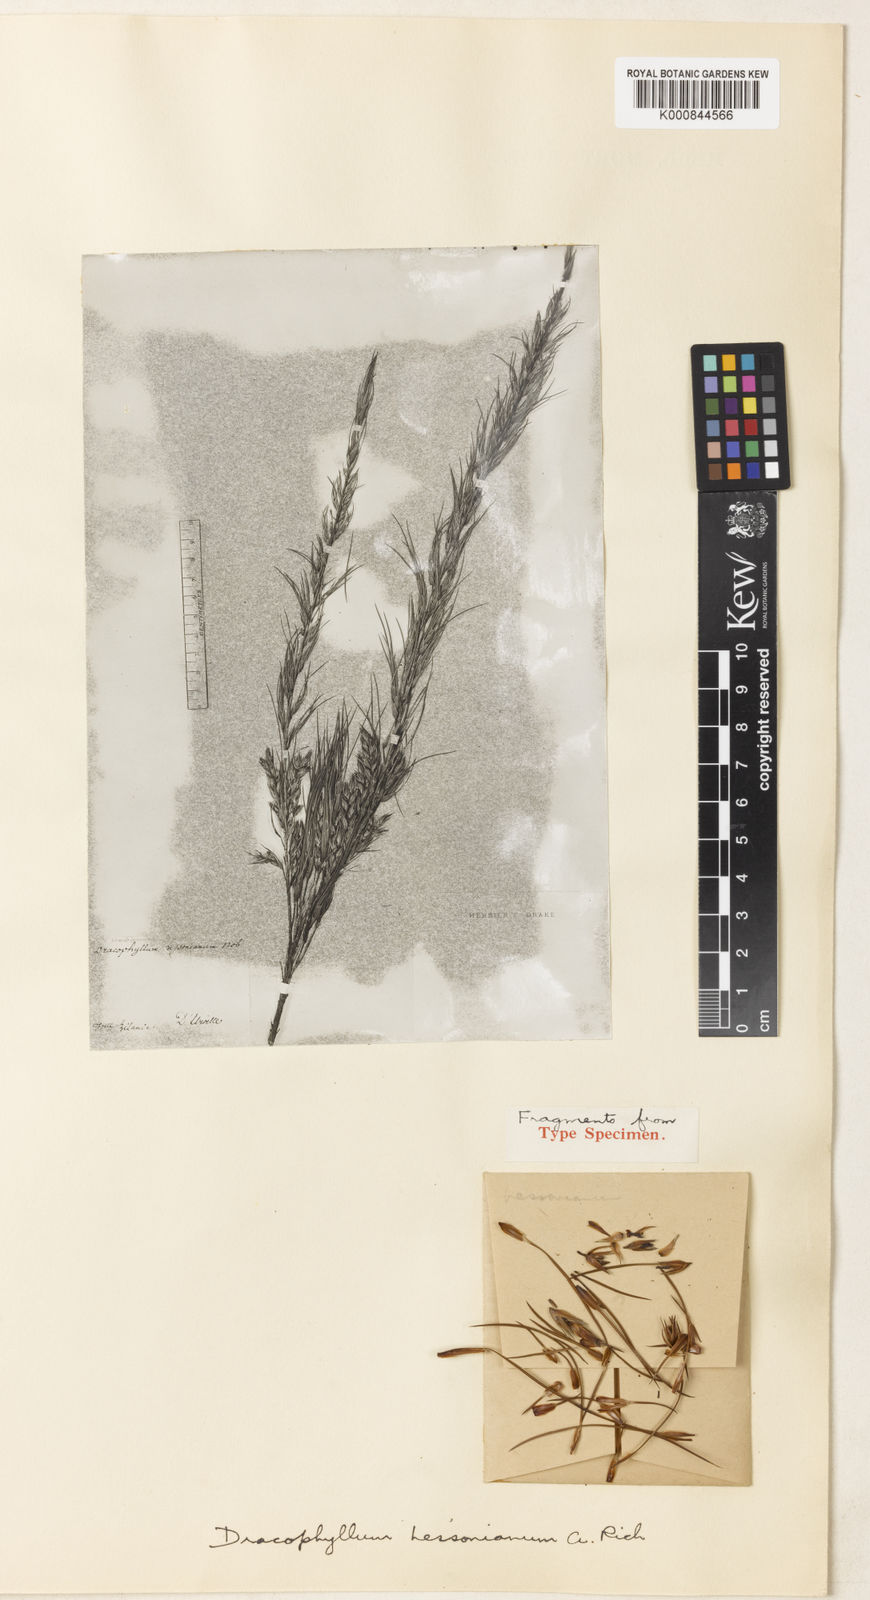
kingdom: Plantae
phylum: Tracheophyta
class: Magnoliopsida
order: Ericales
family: Ericaceae
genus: Dracophyllum
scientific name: Dracophyllum urvilleanum
